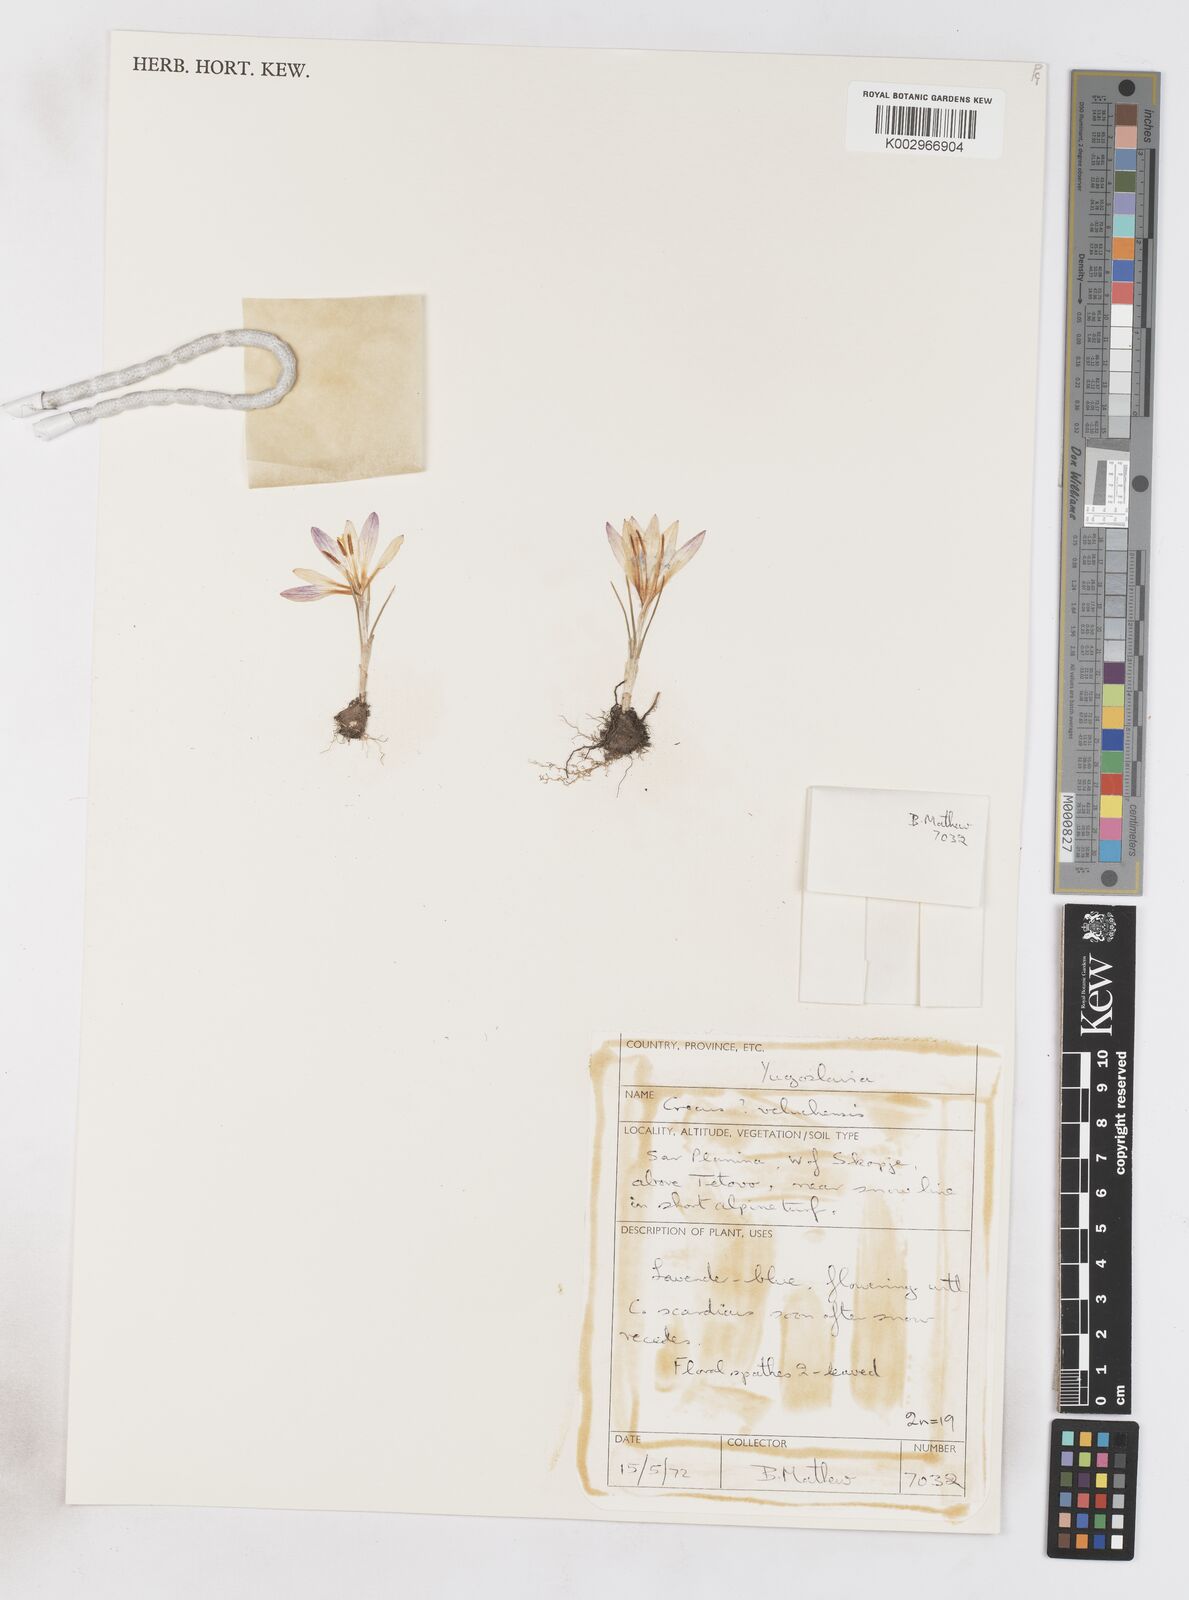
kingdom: Plantae
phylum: Tracheophyta
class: Liliopsida
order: Asparagales
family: Iridaceae
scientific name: Iridaceae
